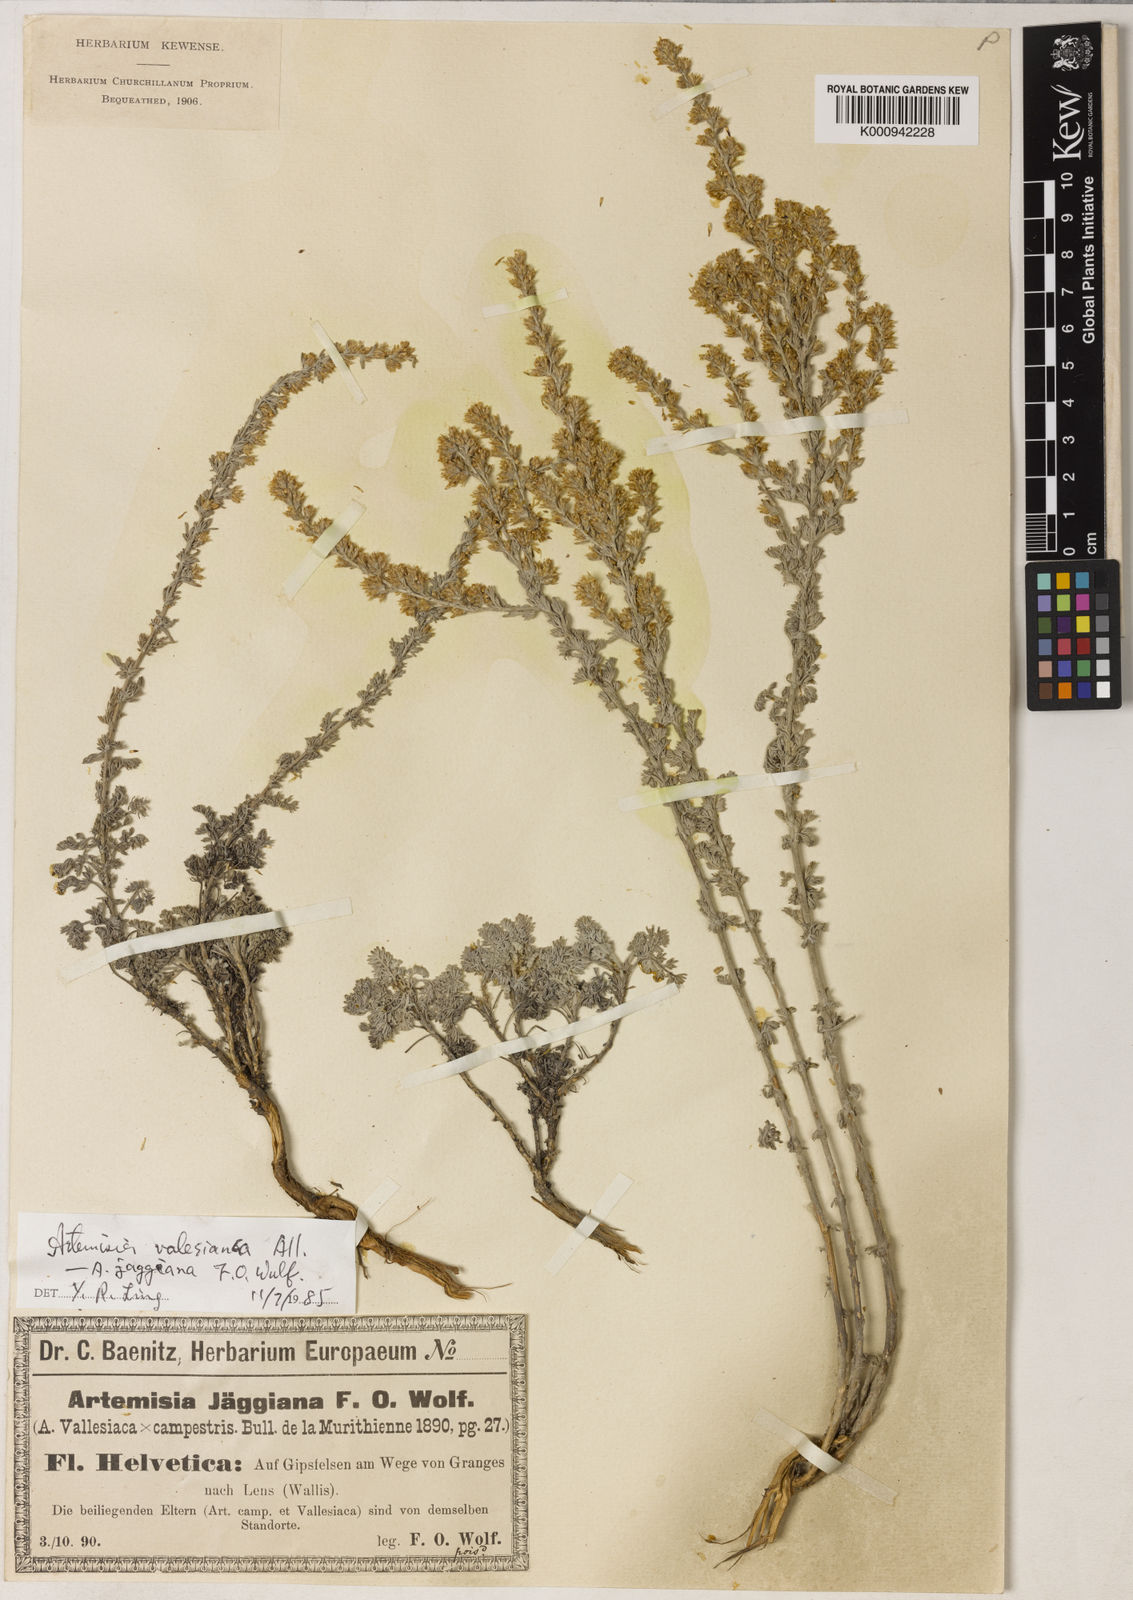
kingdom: Plantae
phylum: Tracheophyta
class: Magnoliopsida
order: Asterales
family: Asteraceae
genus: Artemisia
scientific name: Artemisia vallesiaca
